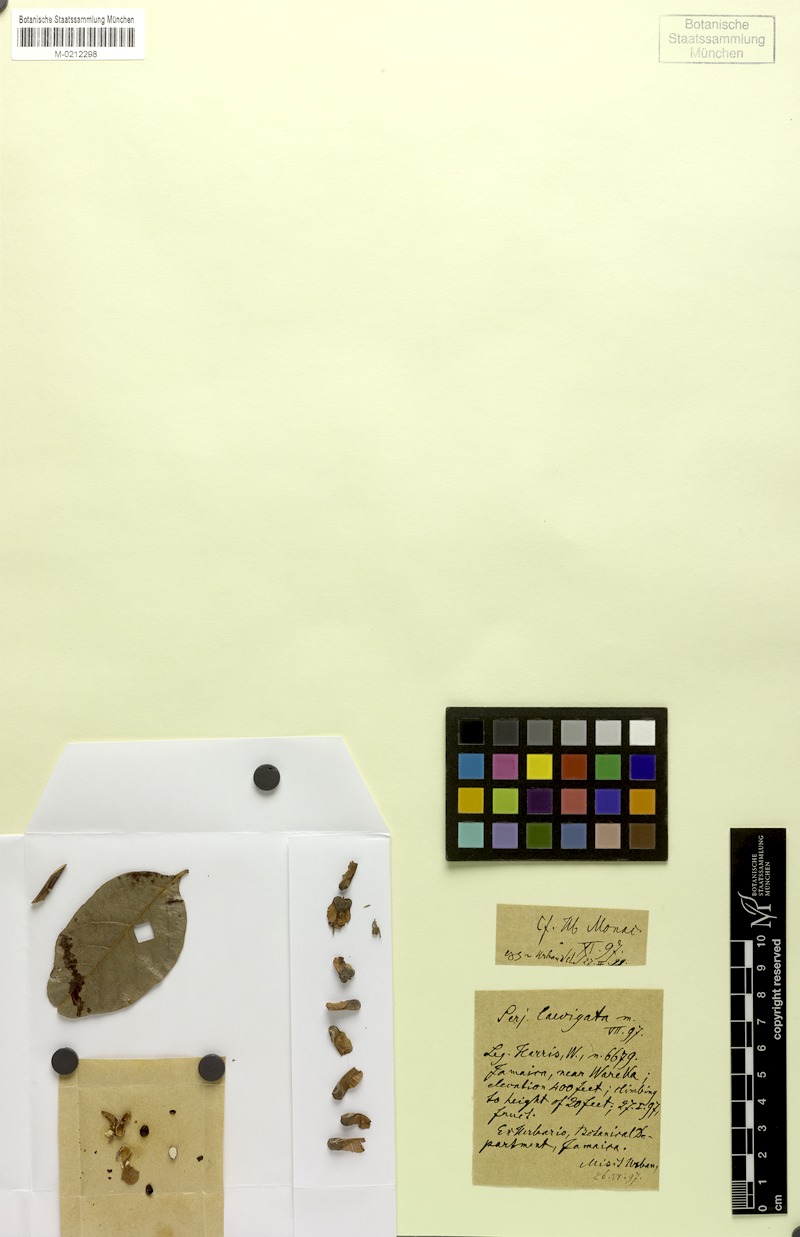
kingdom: Plantae
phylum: Tracheophyta
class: Magnoliopsida
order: Sapindales
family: Sapindaceae
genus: Serjania
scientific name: Serjania laevigata
